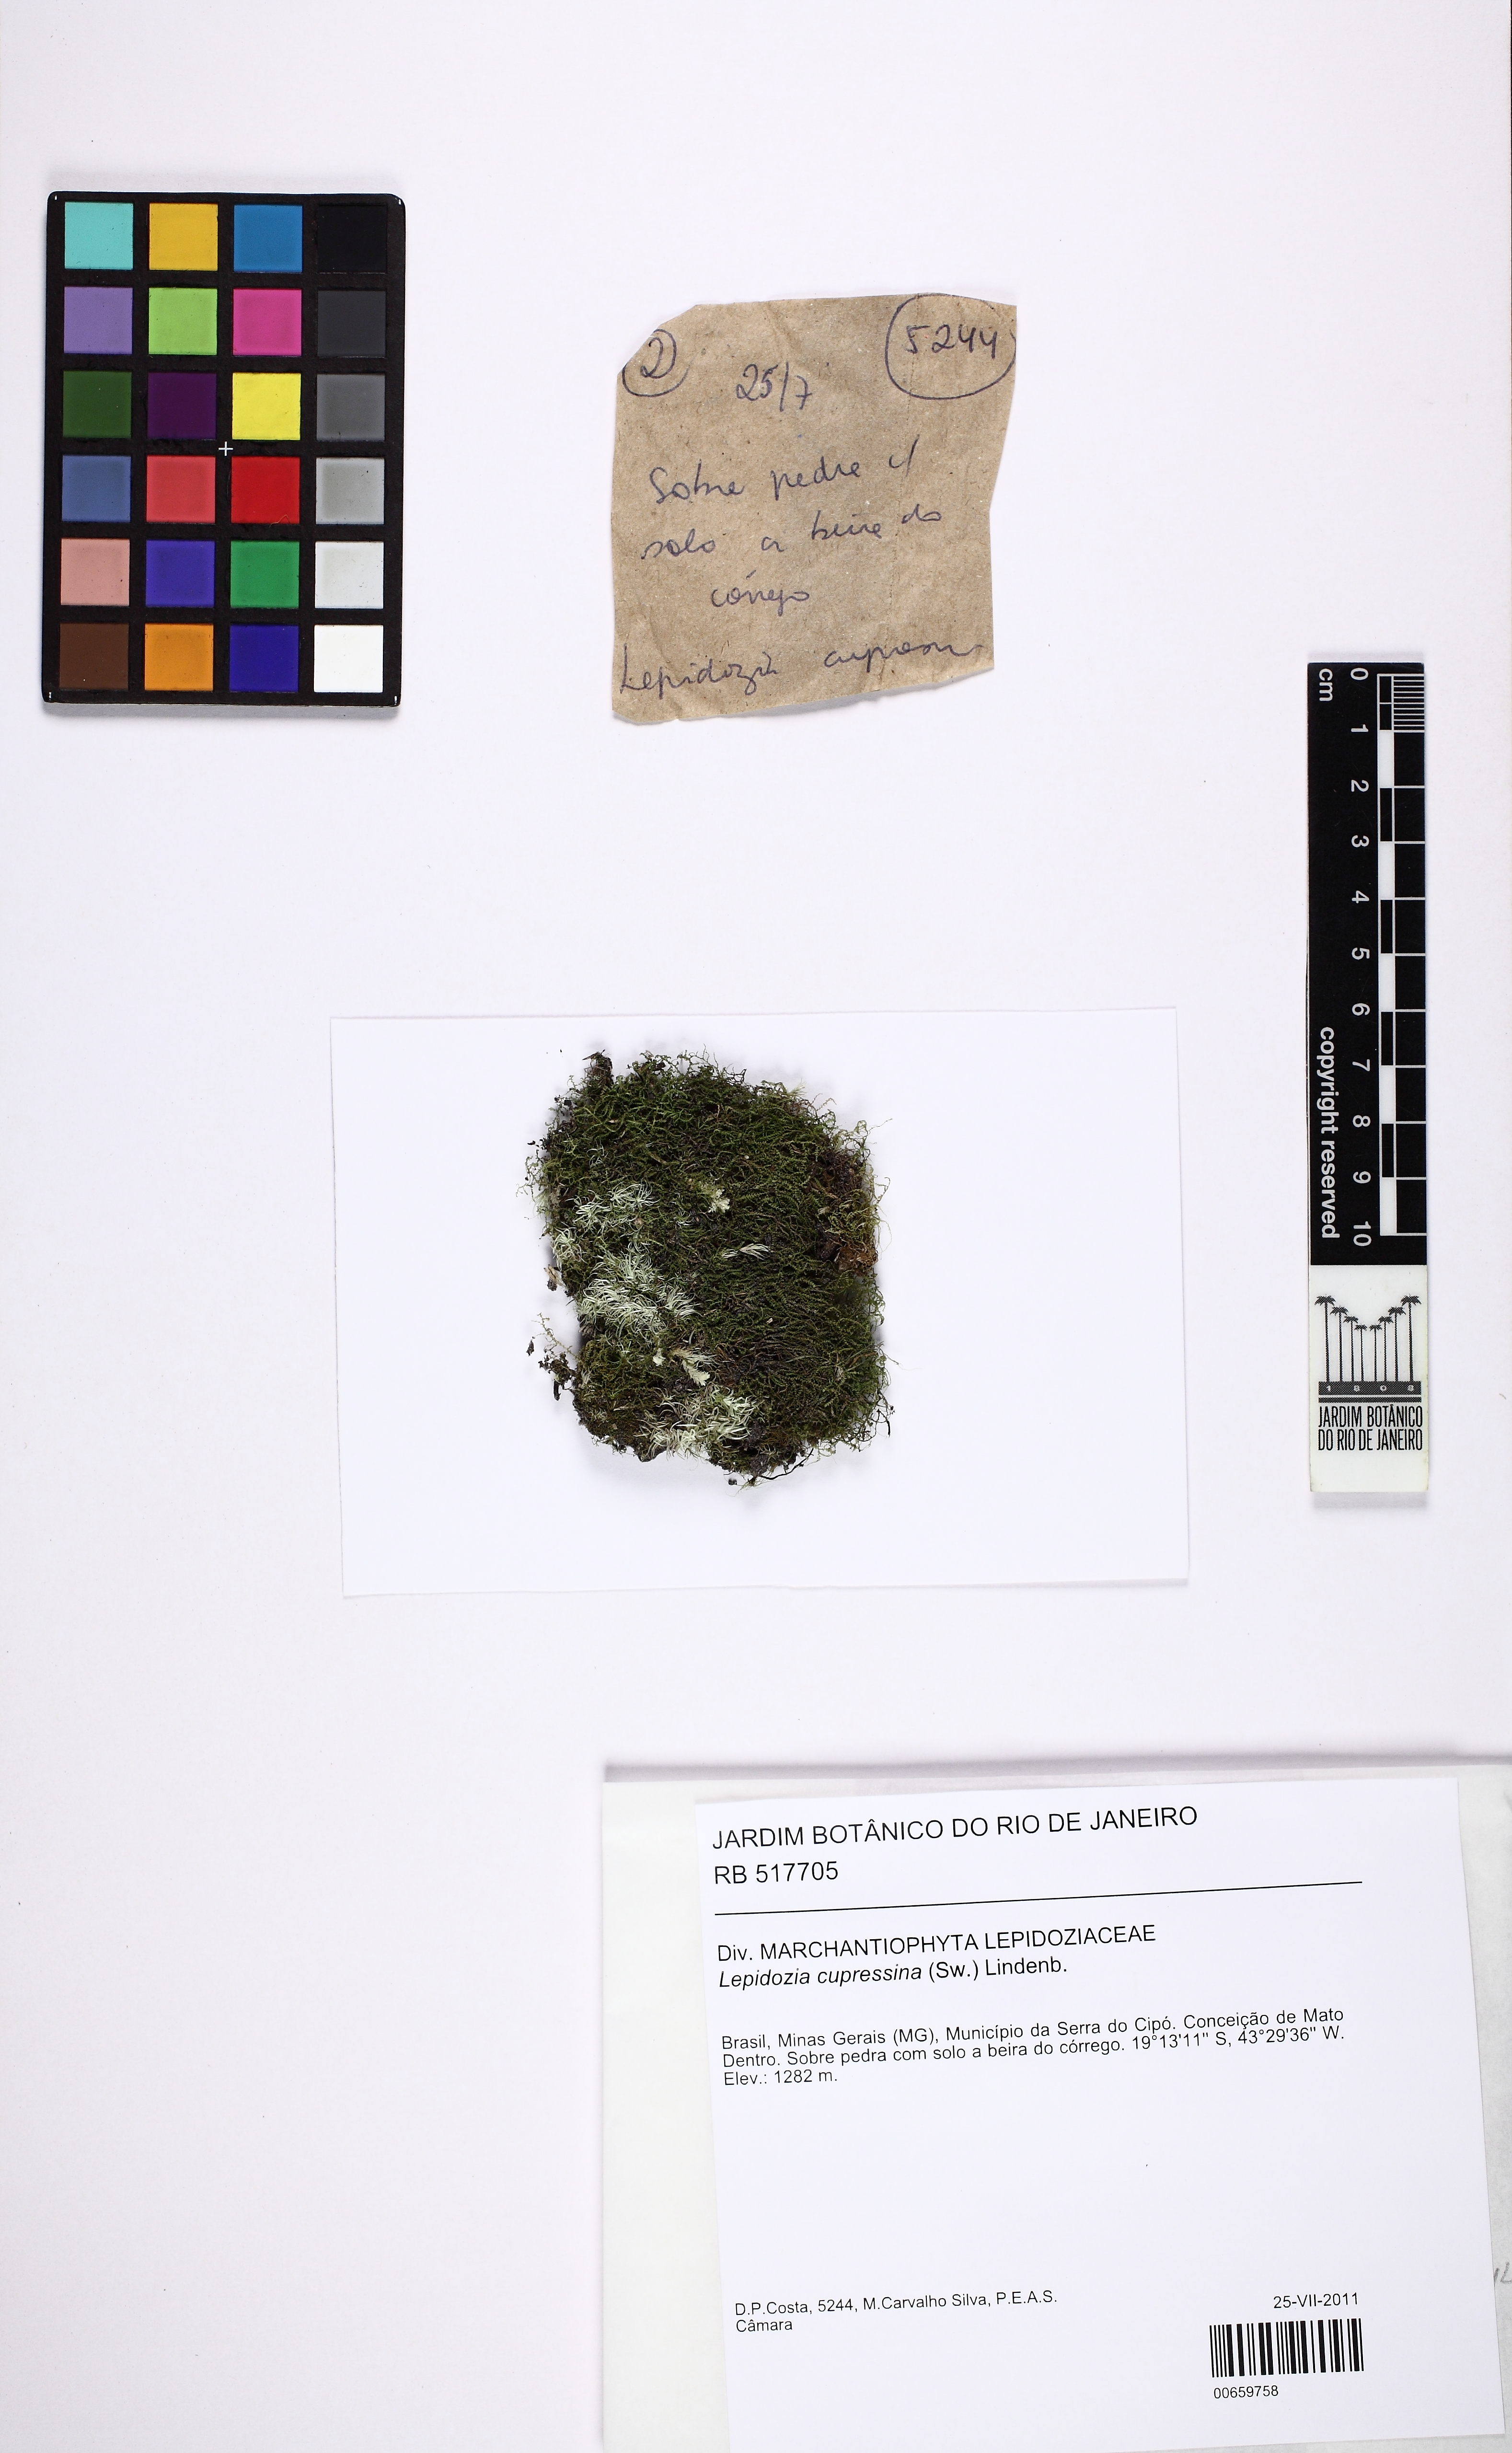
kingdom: Plantae
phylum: Marchantiophyta
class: Jungermanniopsida
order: Jungermanniales
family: Lepidoziaceae
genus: Lepidozia
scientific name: Lepidozia coilophylla
